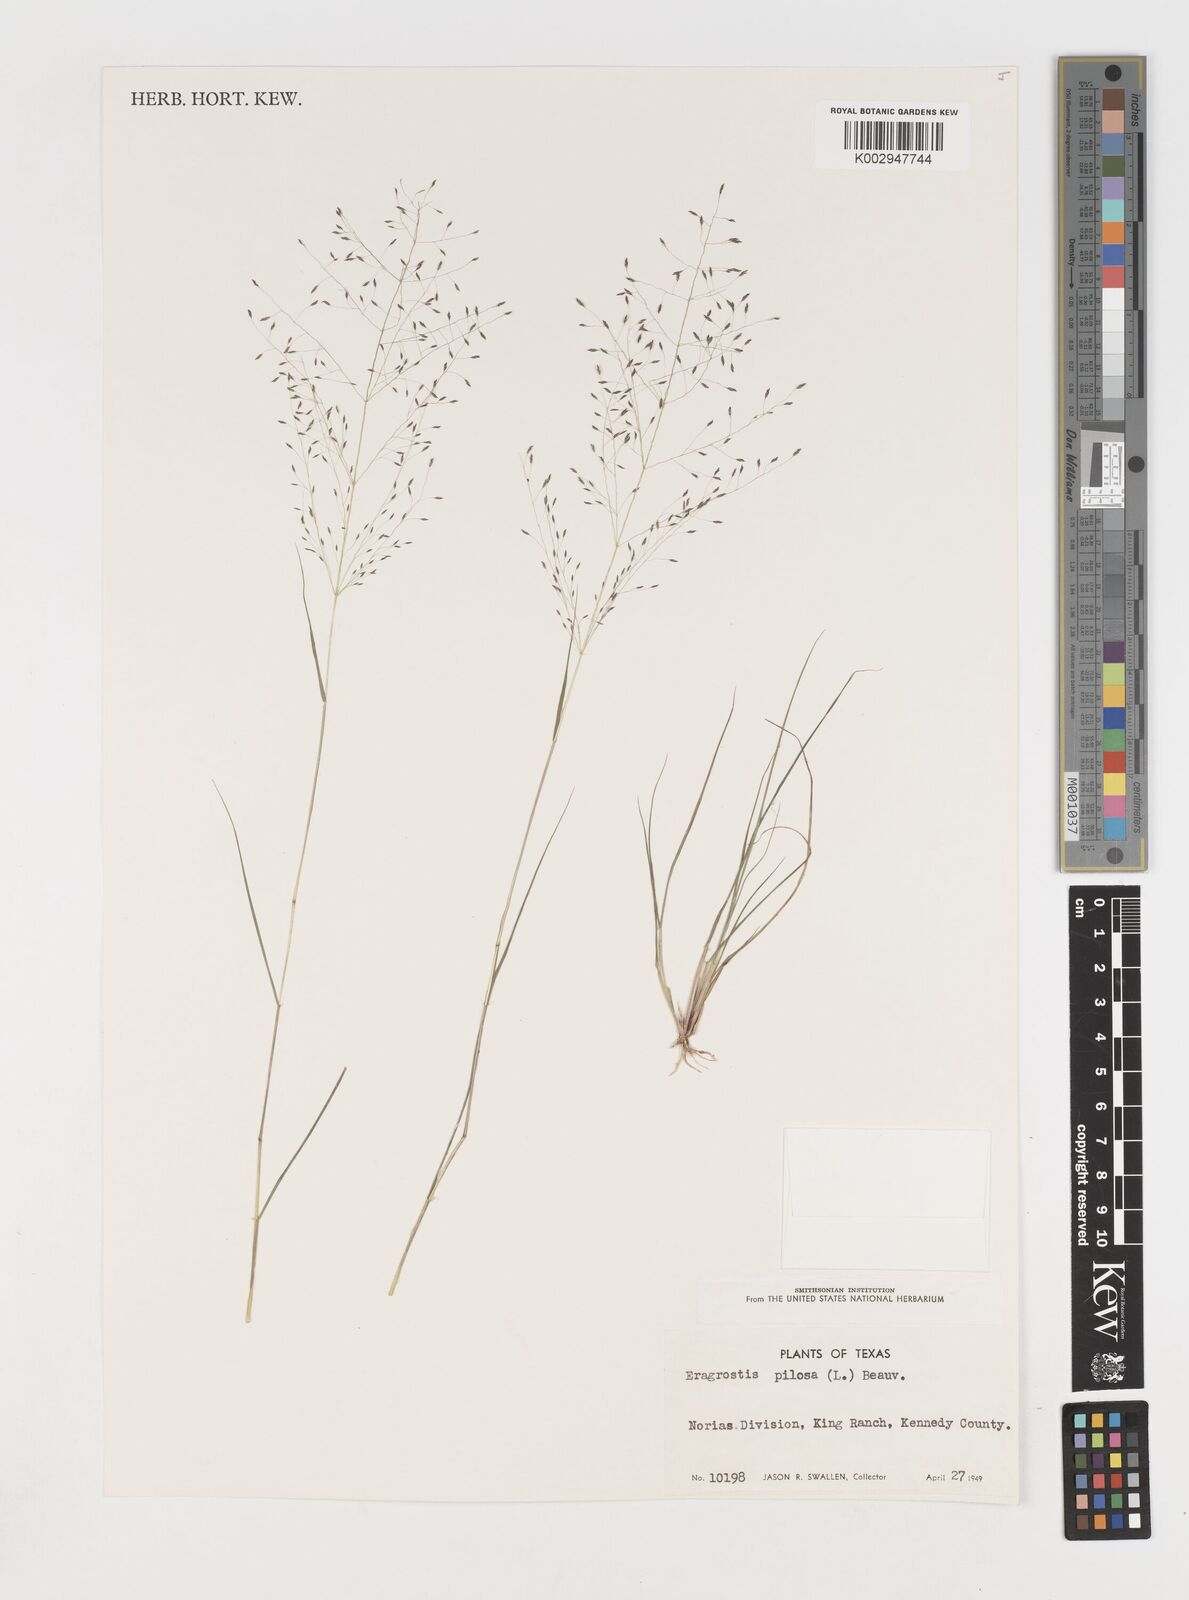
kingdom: Plantae
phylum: Tracheophyta
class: Liliopsida
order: Poales
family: Poaceae
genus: Eragrostis
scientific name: Eragrostis pilosa
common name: Indian lovegrass
